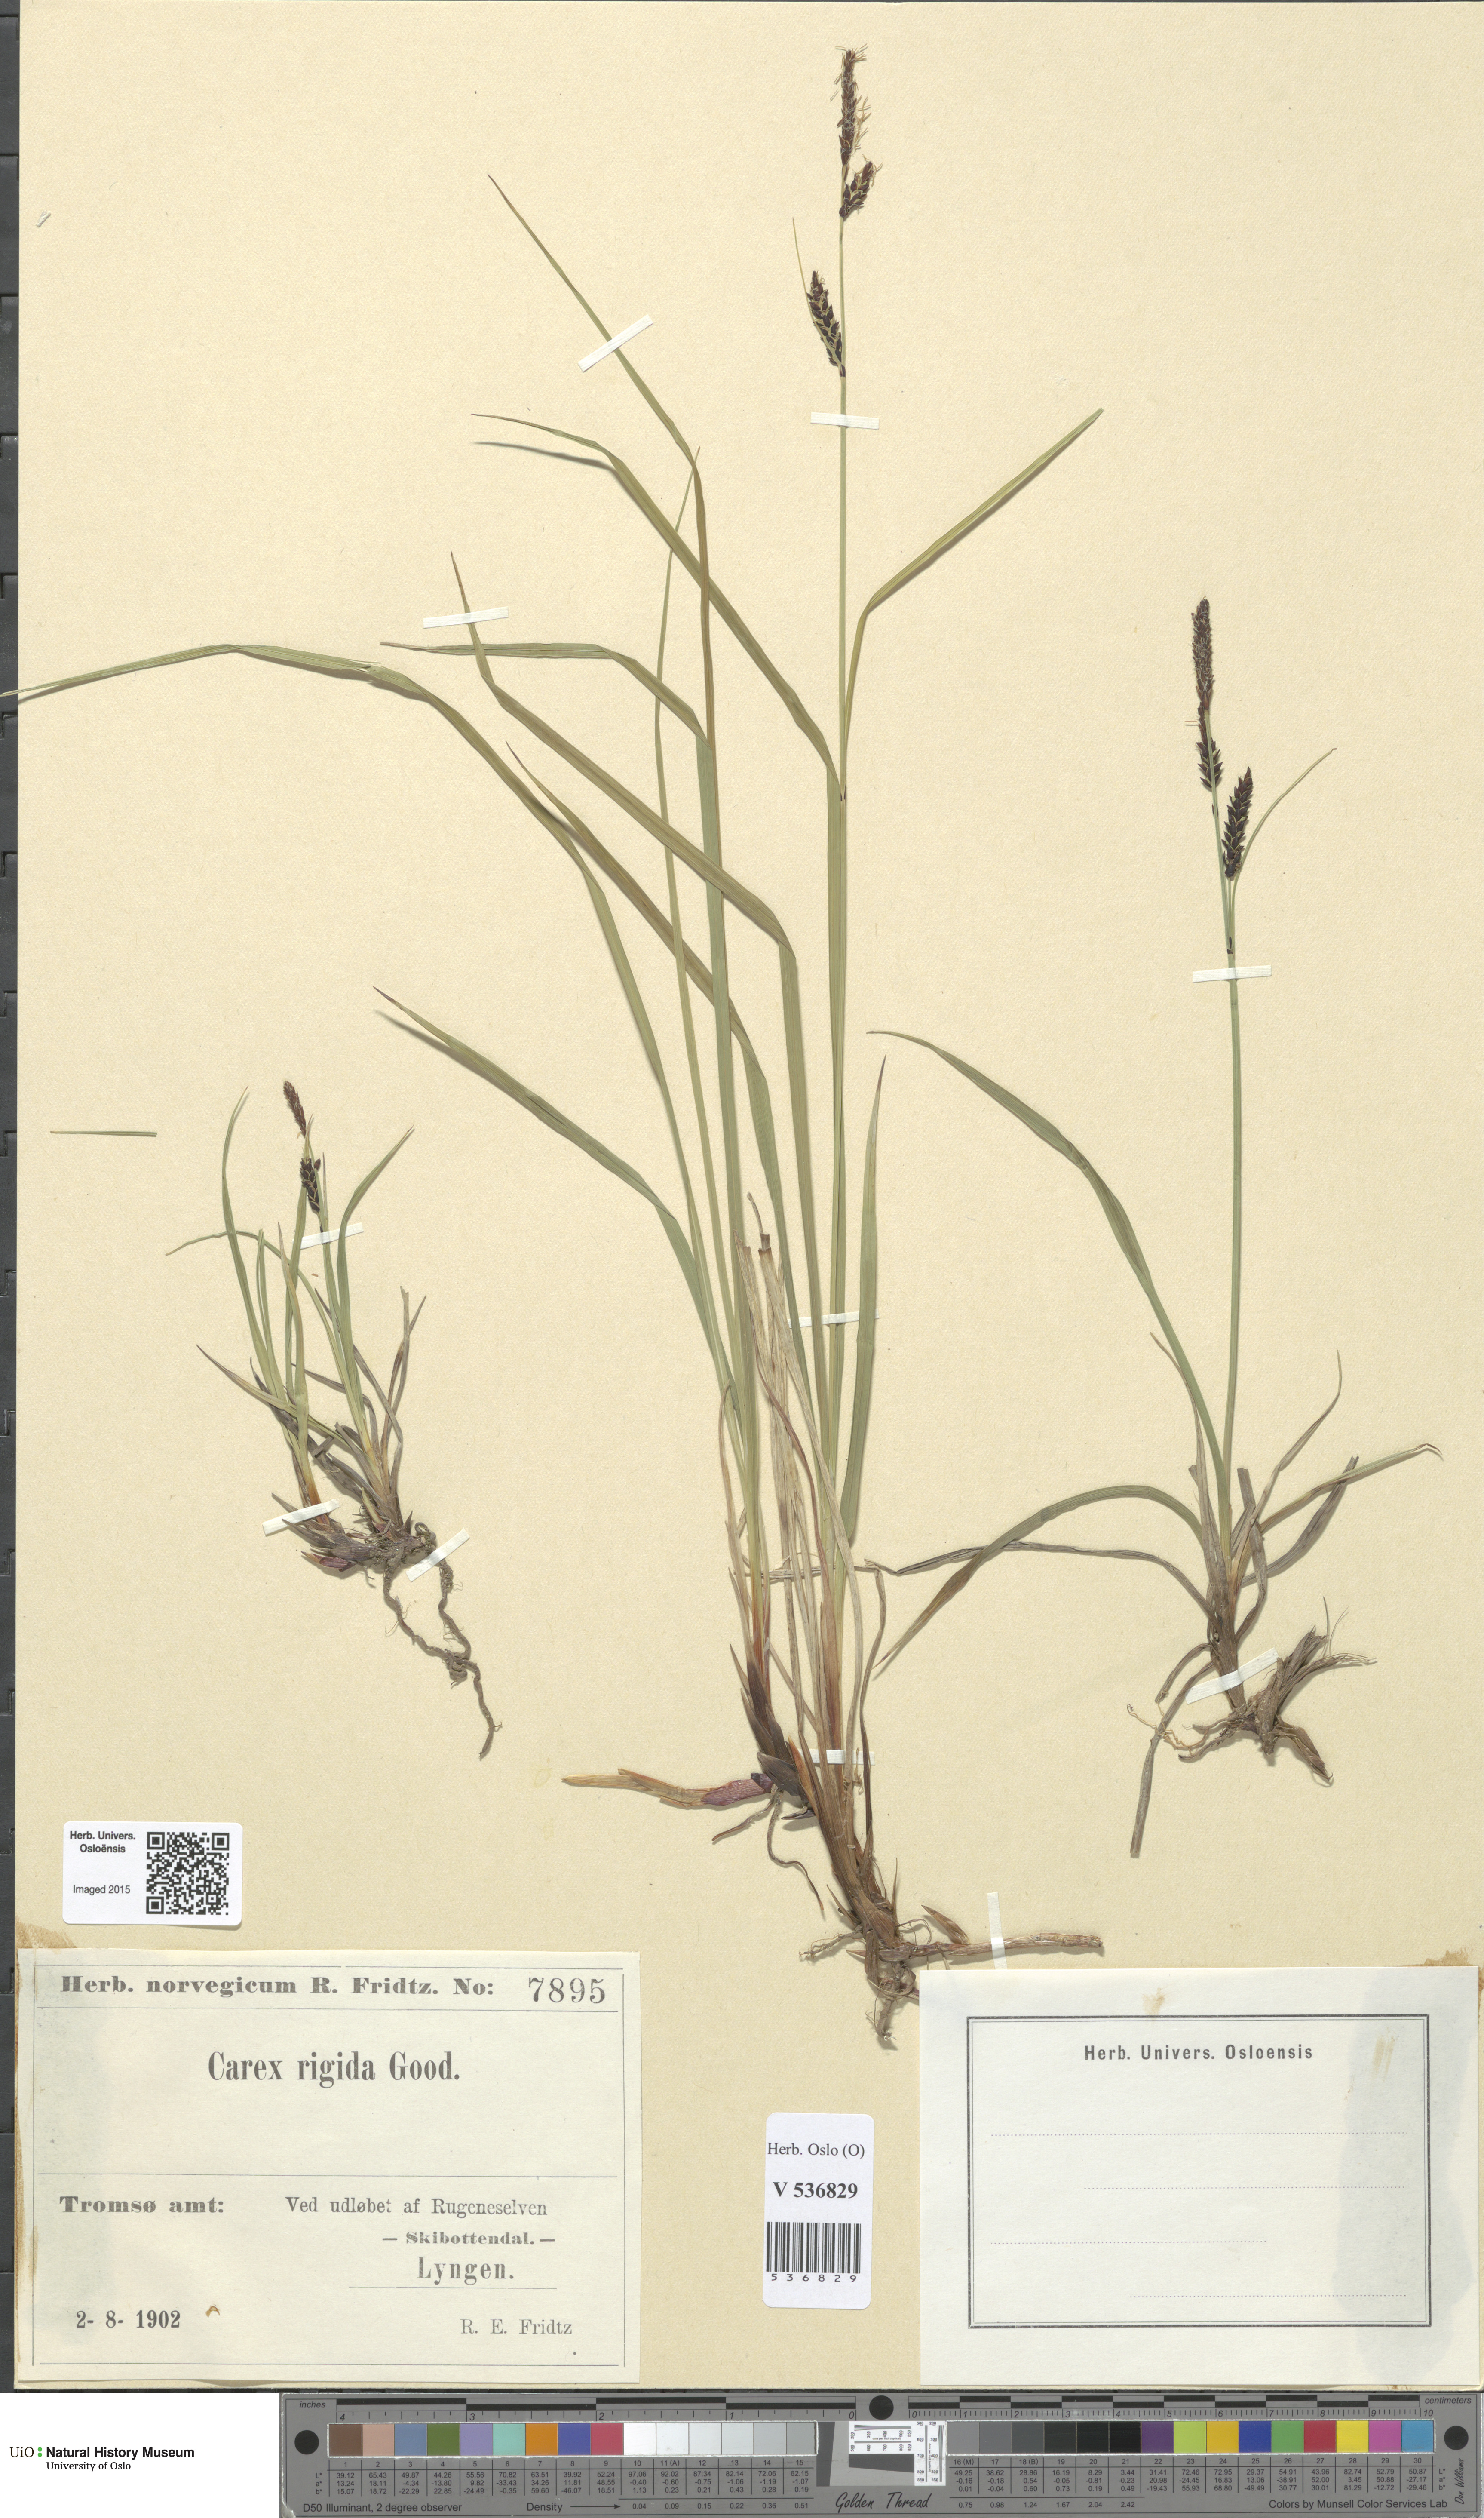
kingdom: Plantae
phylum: Tracheophyta
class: Liliopsida
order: Poales
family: Cyperaceae
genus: Carex
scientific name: Carex dacica
